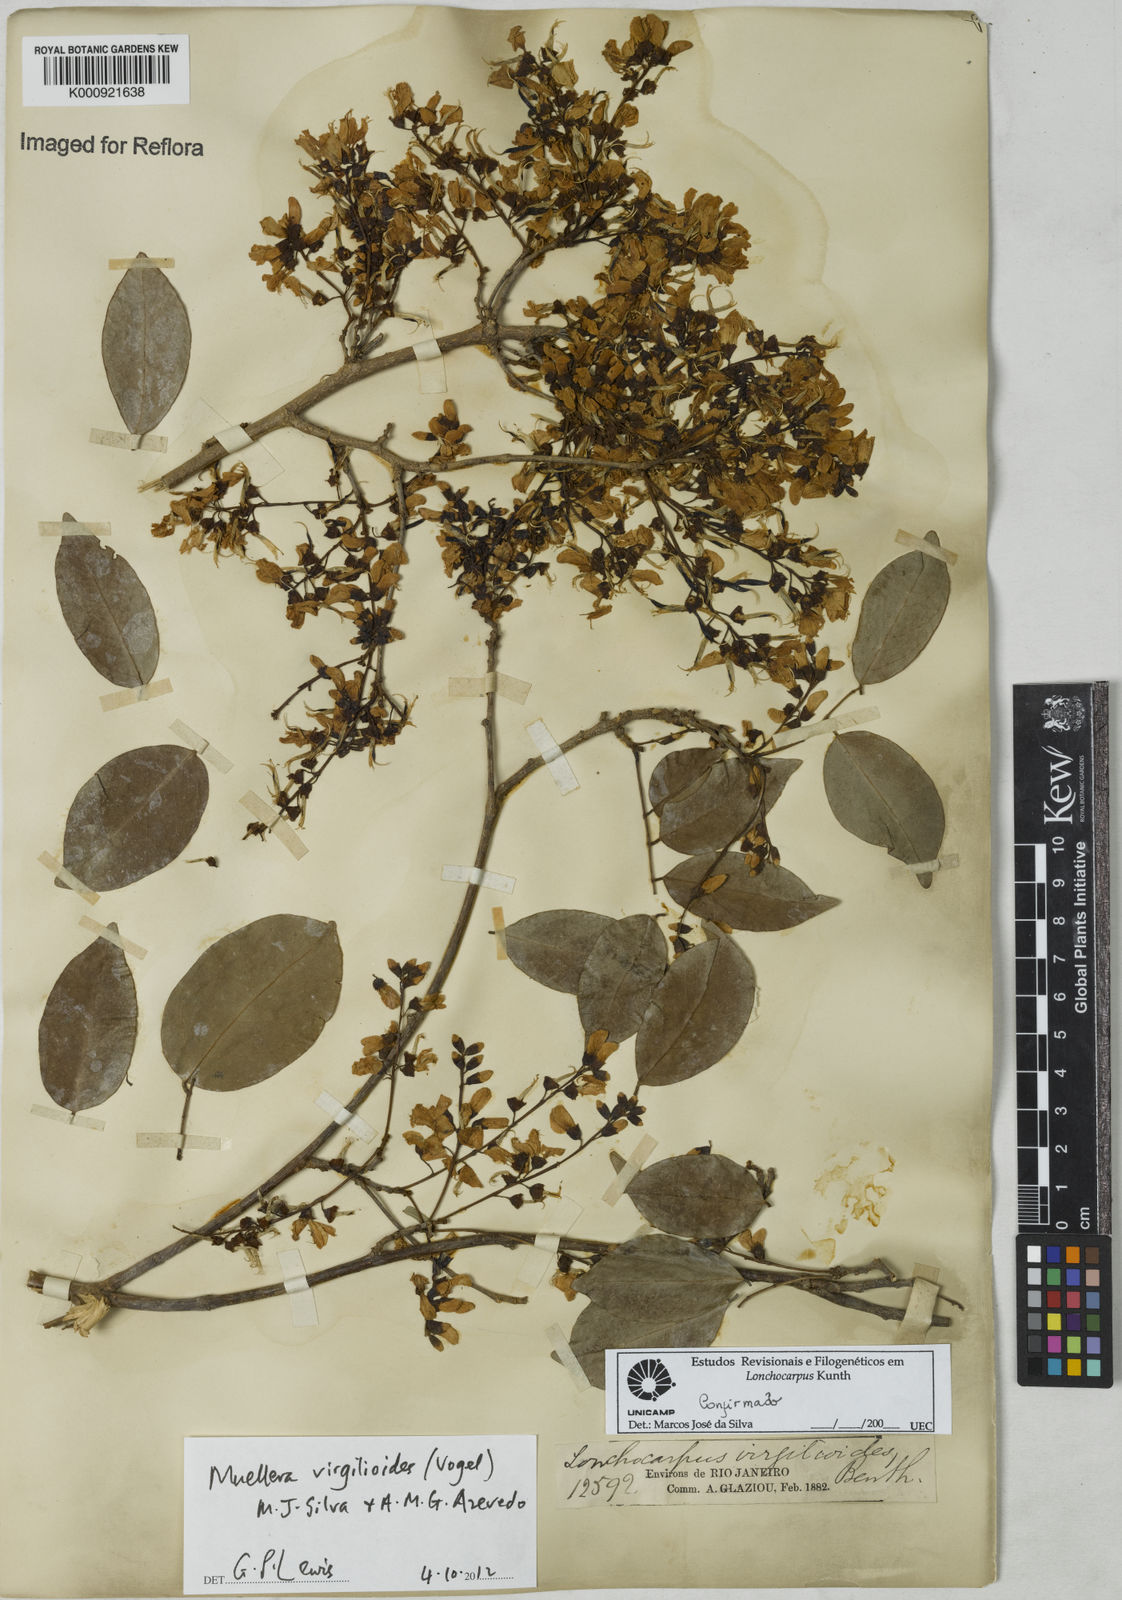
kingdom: Plantae
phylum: Tracheophyta
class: Magnoliopsida
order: Fabales
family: Fabaceae
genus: Muellera
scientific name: Muellera virgilioides
